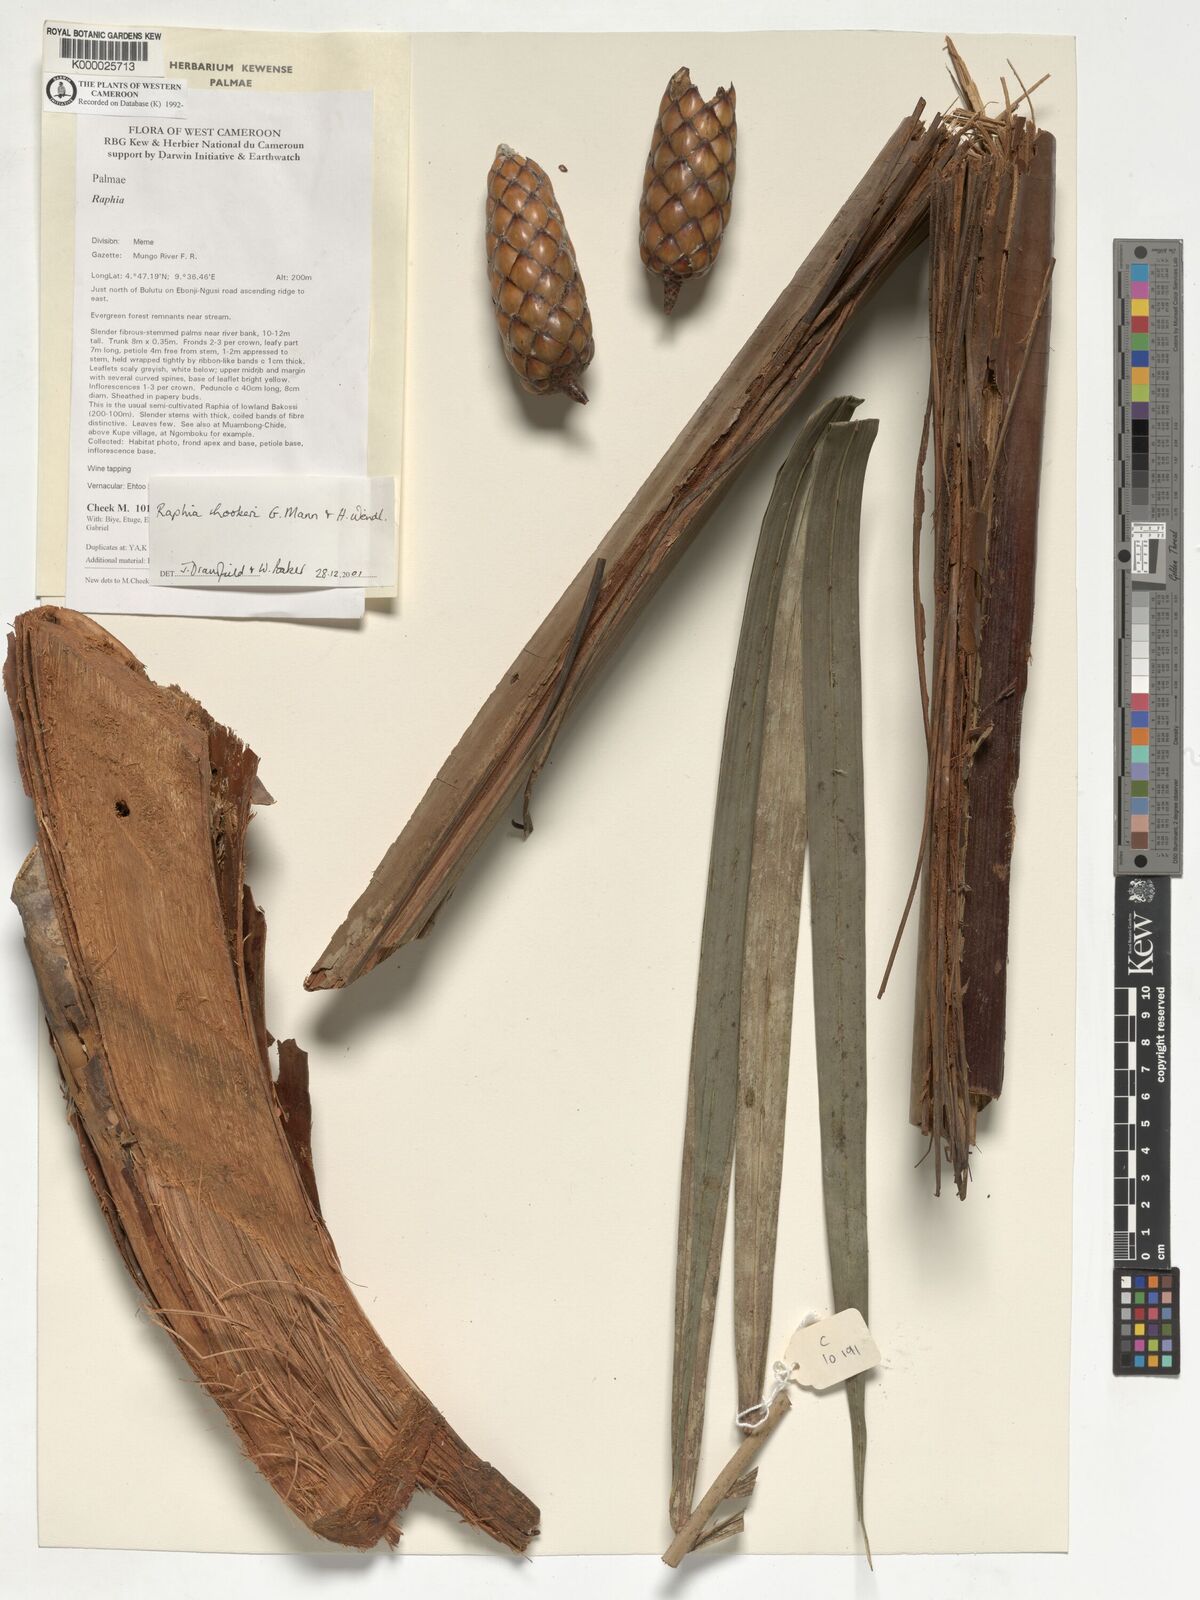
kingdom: Plantae
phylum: Tracheophyta
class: Liliopsida
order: Arecales
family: Arecaceae
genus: Raphia
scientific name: Raphia hookeri
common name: Wine palm
